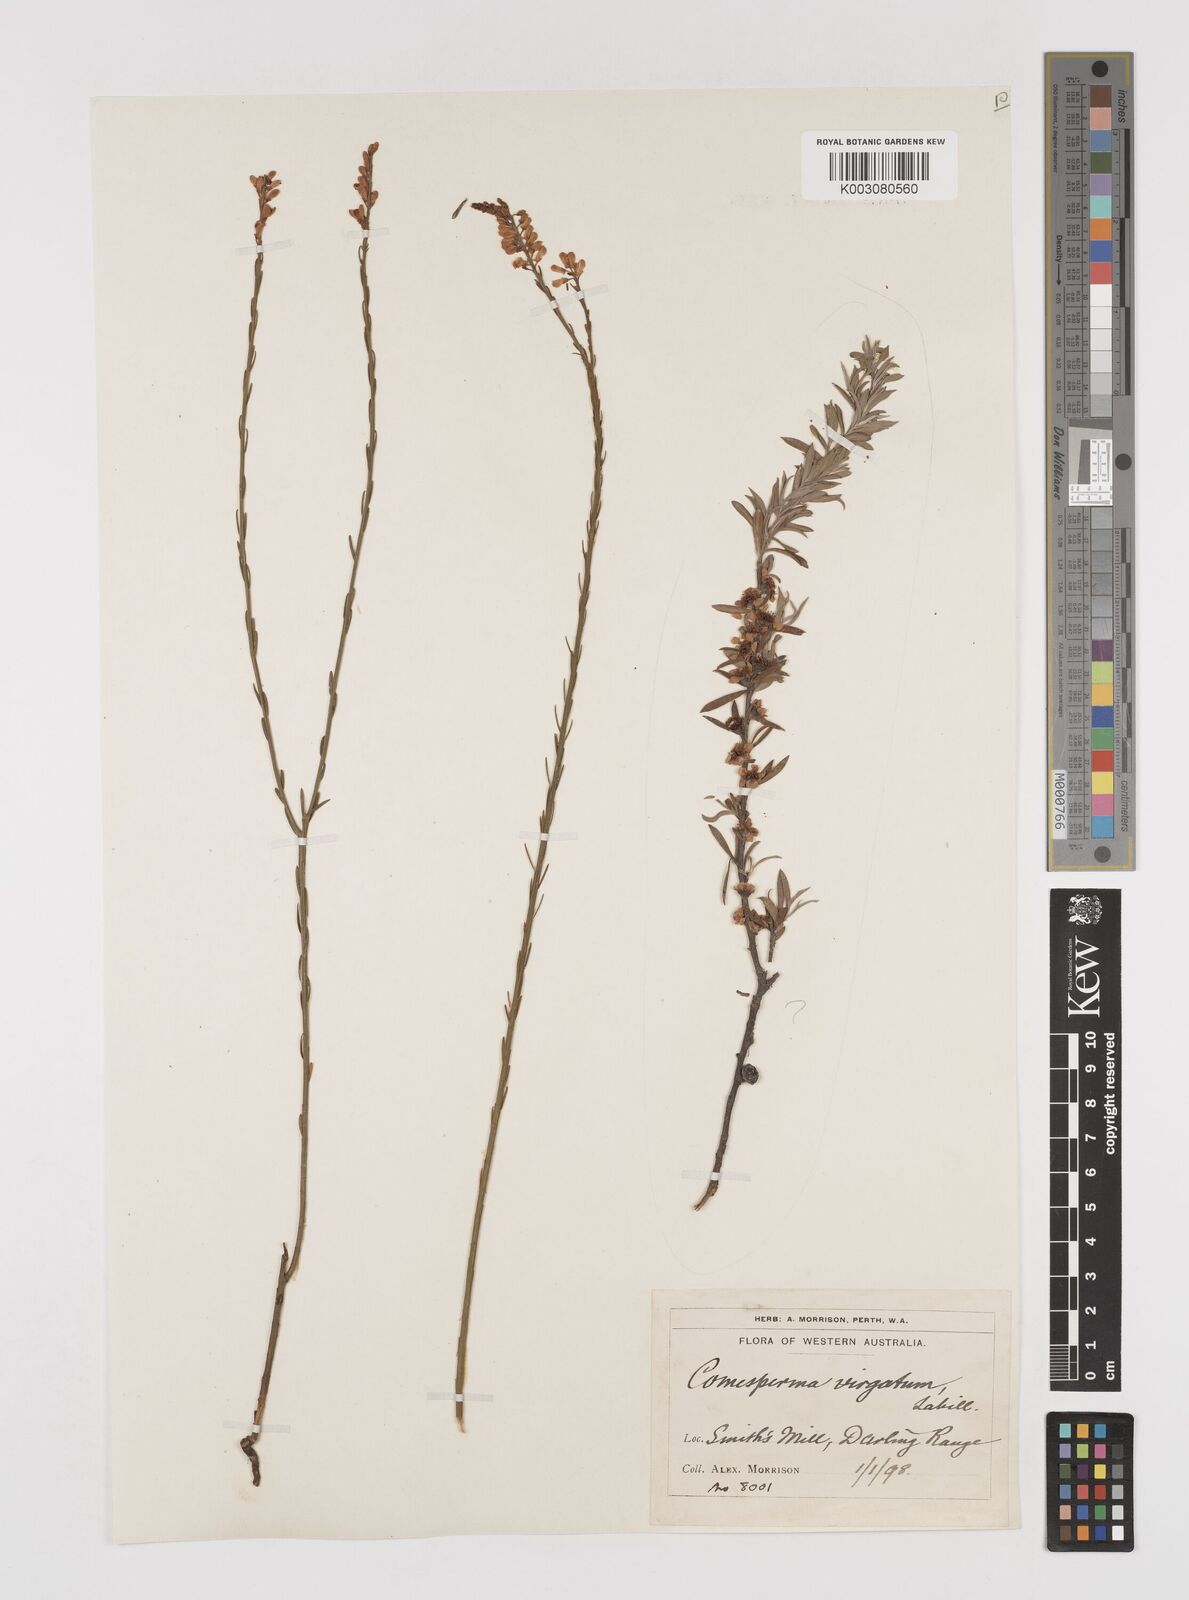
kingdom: Plantae
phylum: Tracheophyta
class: Magnoliopsida
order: Fabales
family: Polygalaceae
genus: Comesperma
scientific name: Comesperma virgatum
